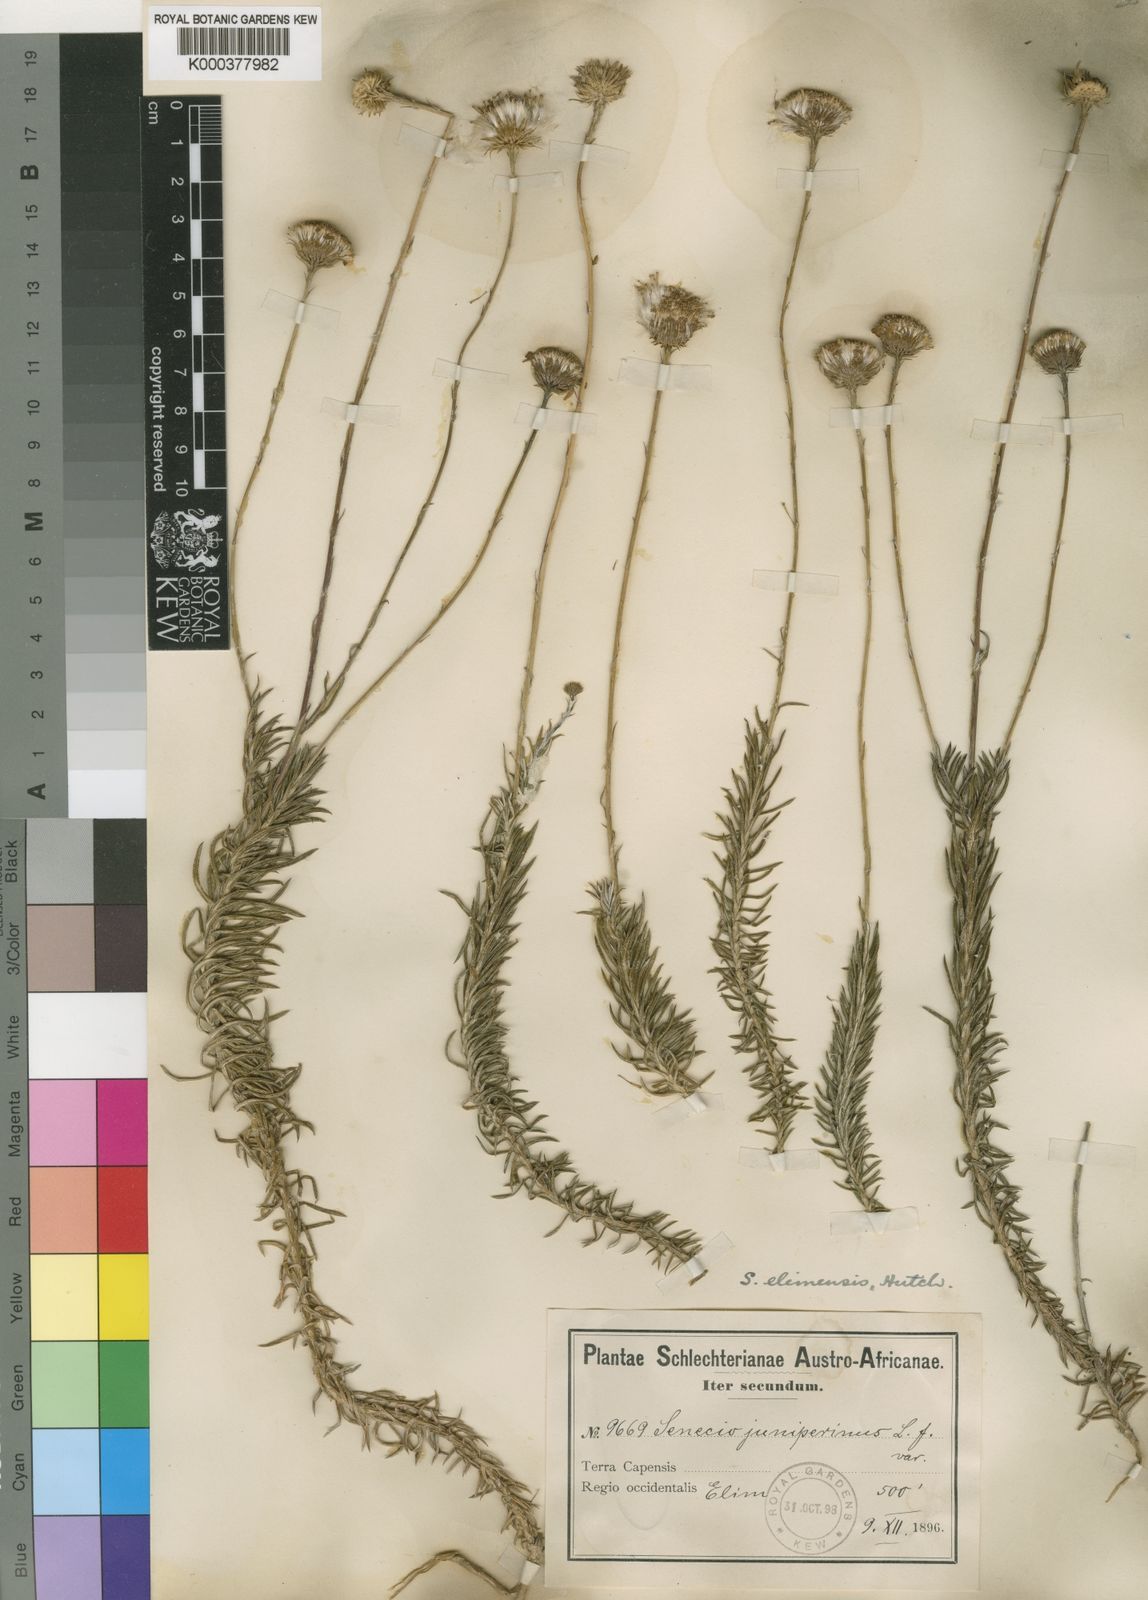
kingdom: Plantae
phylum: Tracheophyta
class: Magnoliopsida
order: Asterales
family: Asteraceae
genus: Senecio
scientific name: Senecio
